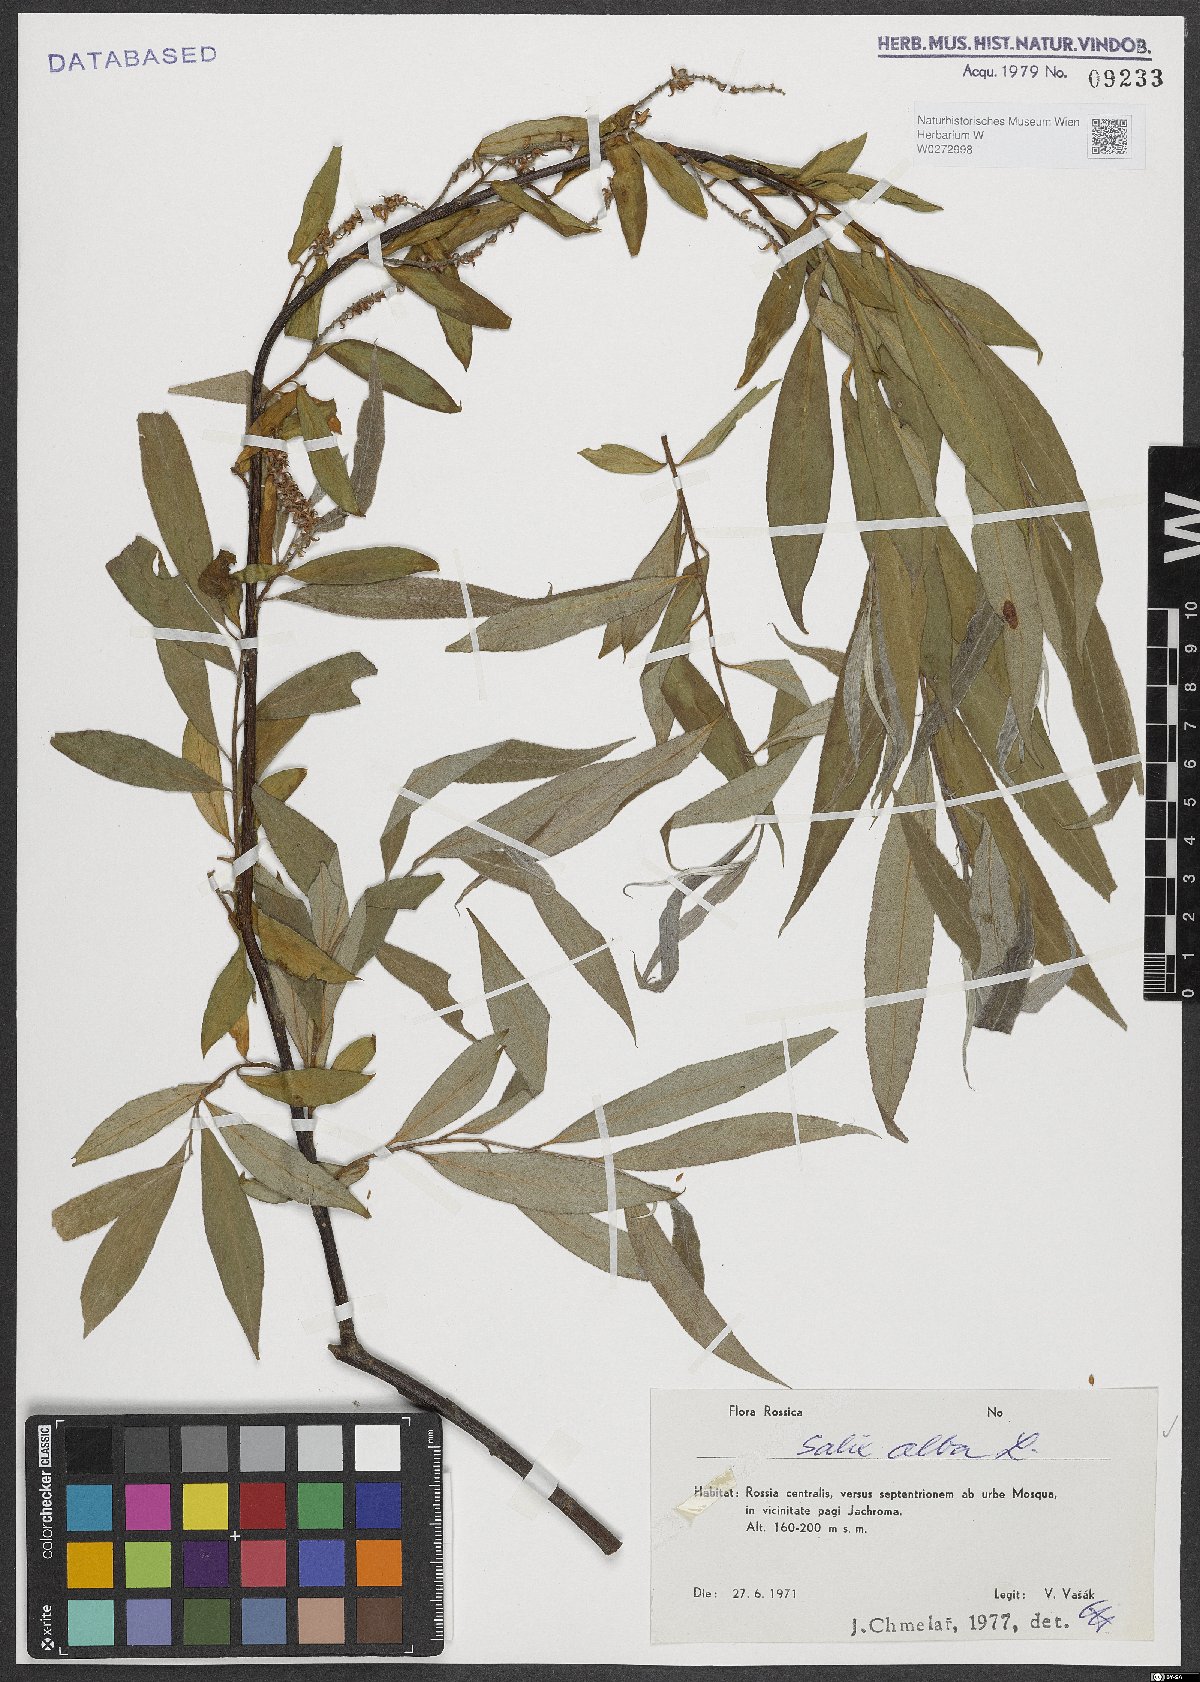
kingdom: Plantae
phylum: Tracheophyta
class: Magnoliopsida
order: Malpighiales
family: Salicaceae
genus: Salix
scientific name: Salix alba
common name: White willow
